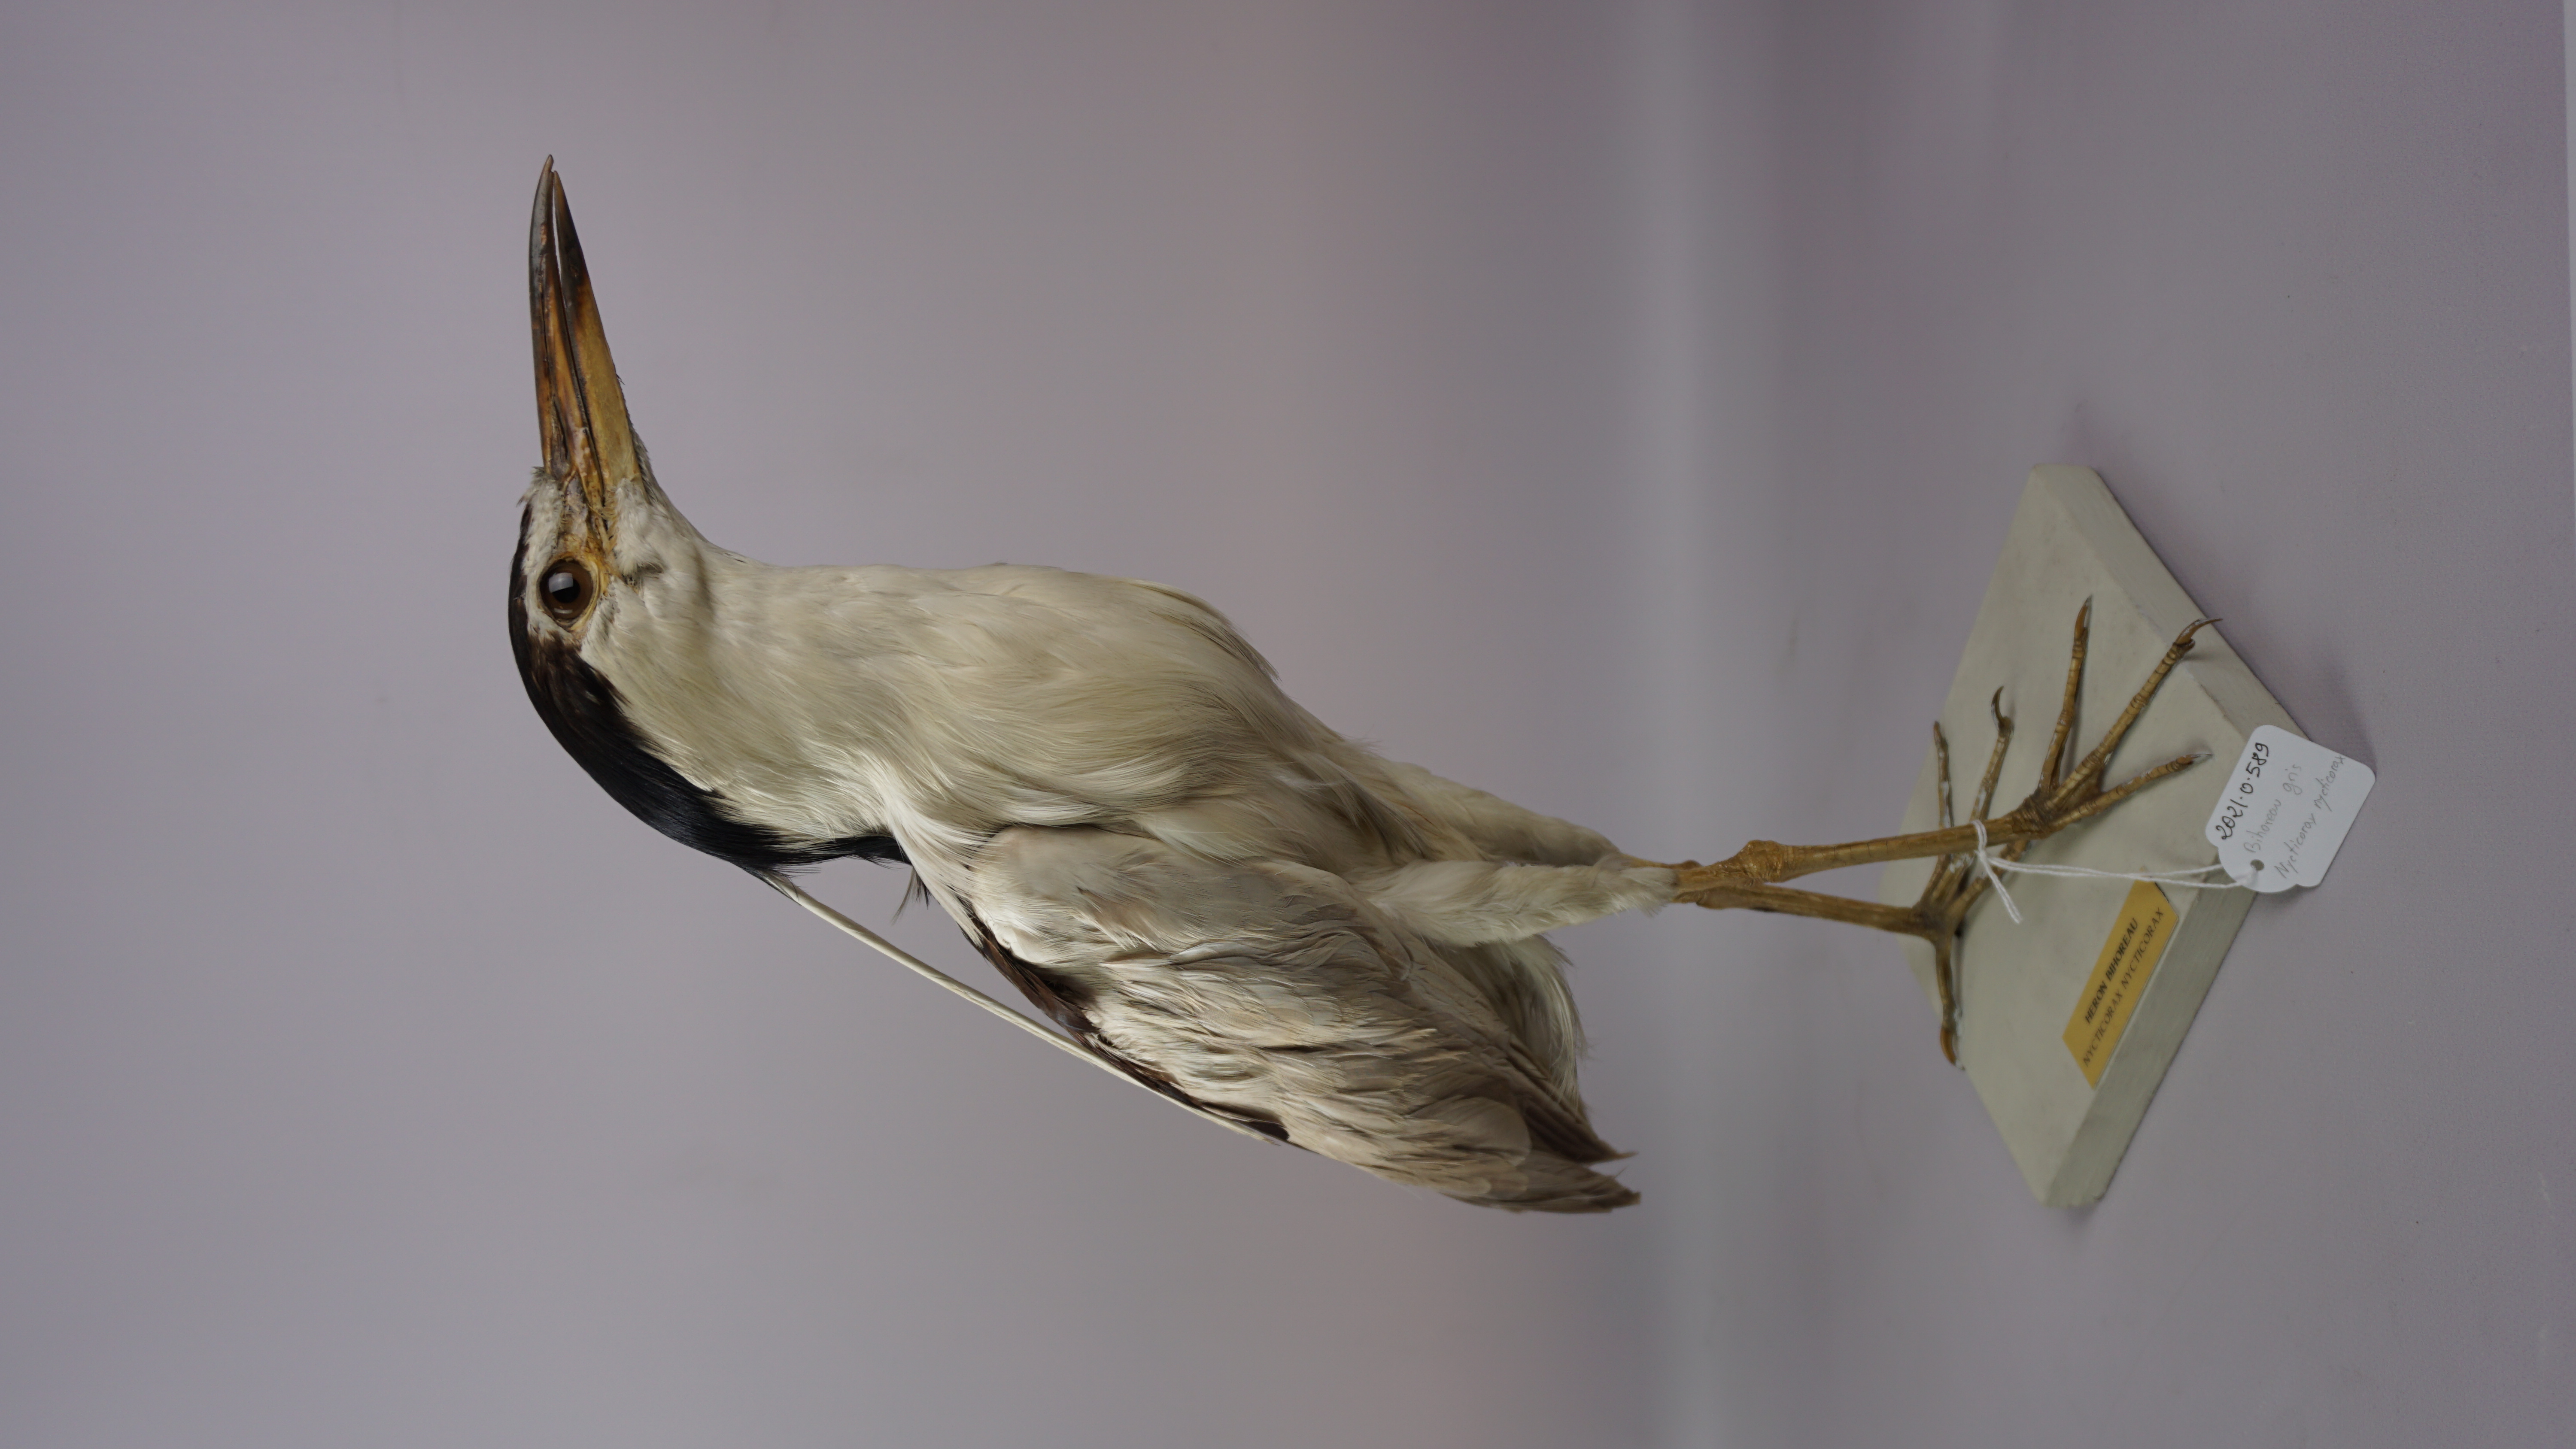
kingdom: Animalia
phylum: Chordata
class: Aves
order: Pelecaniformes
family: Ardeidae
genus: Nycticorax
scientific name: Nycticorax nycticorax
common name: Black-crowned night heron
